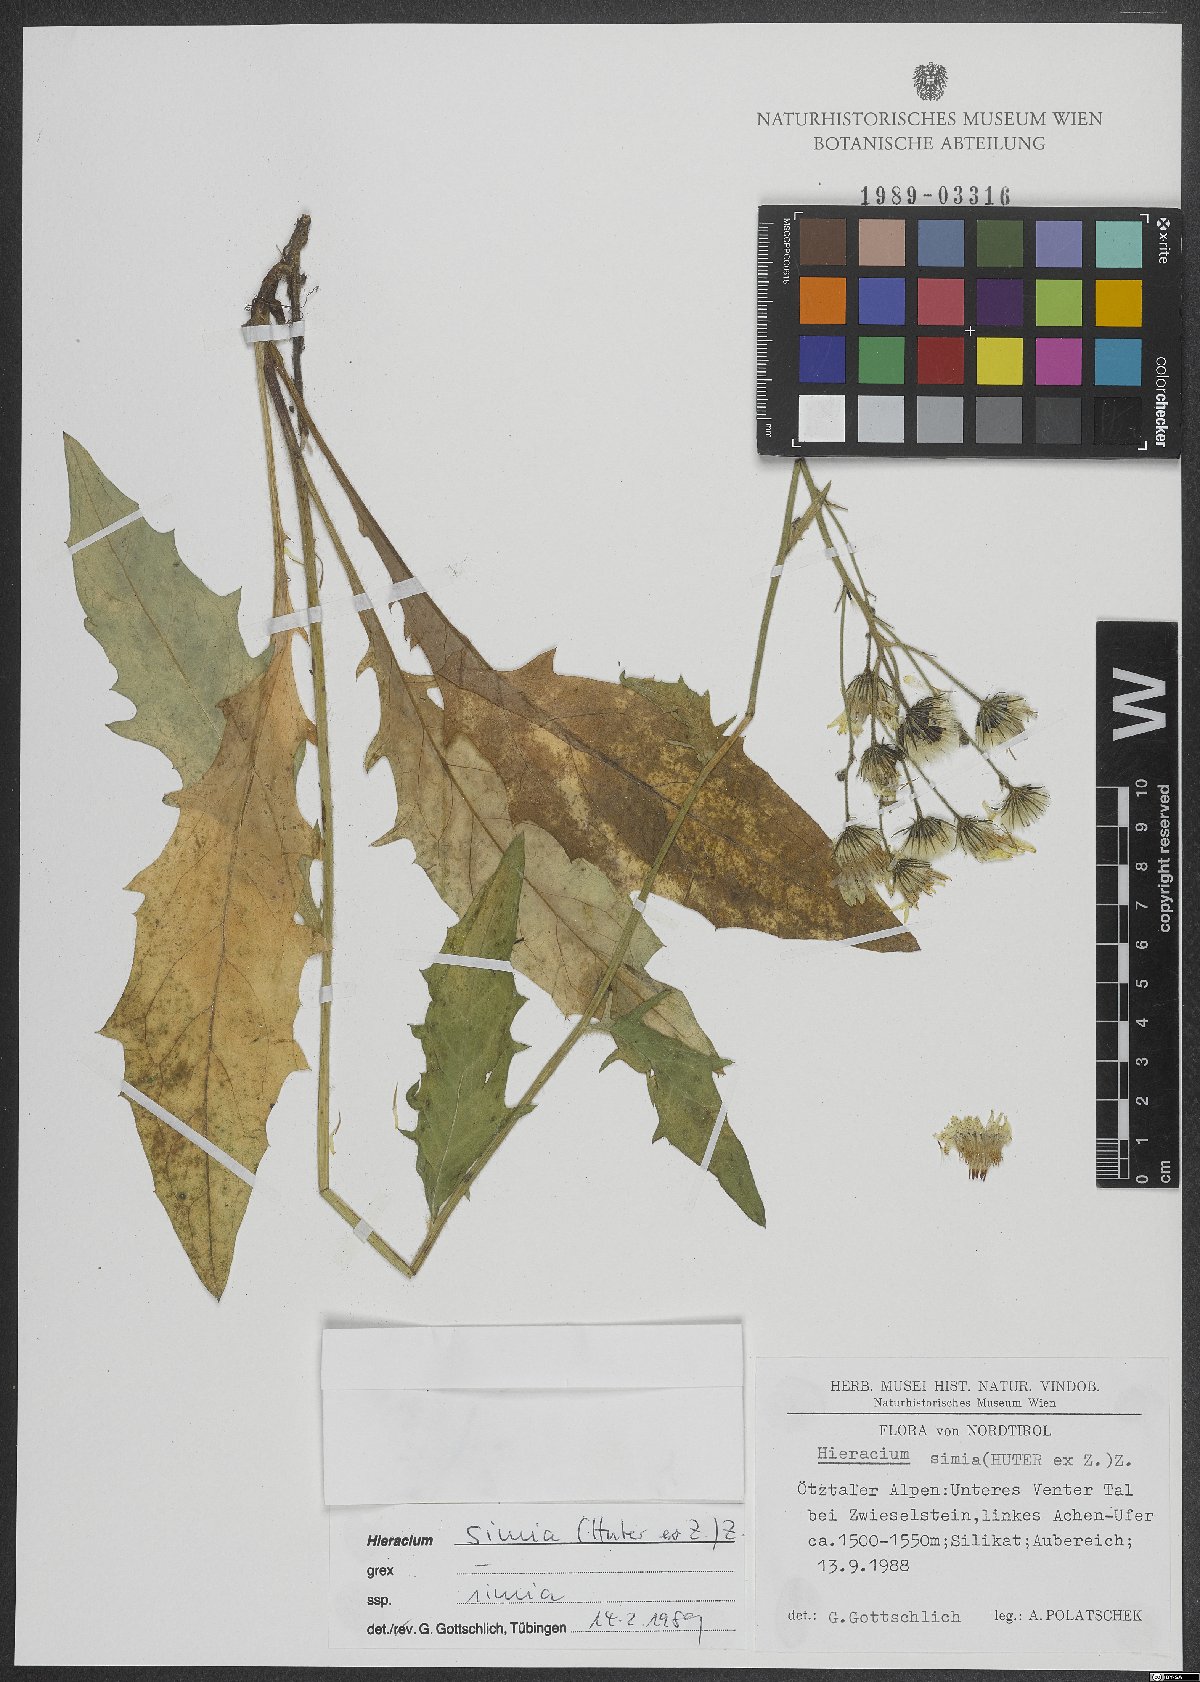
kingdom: Plantae
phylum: Tracheophyta
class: Magnoliopsida
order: Asterales
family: Asteraceae
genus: Hieracium
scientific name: Hieracium simia
